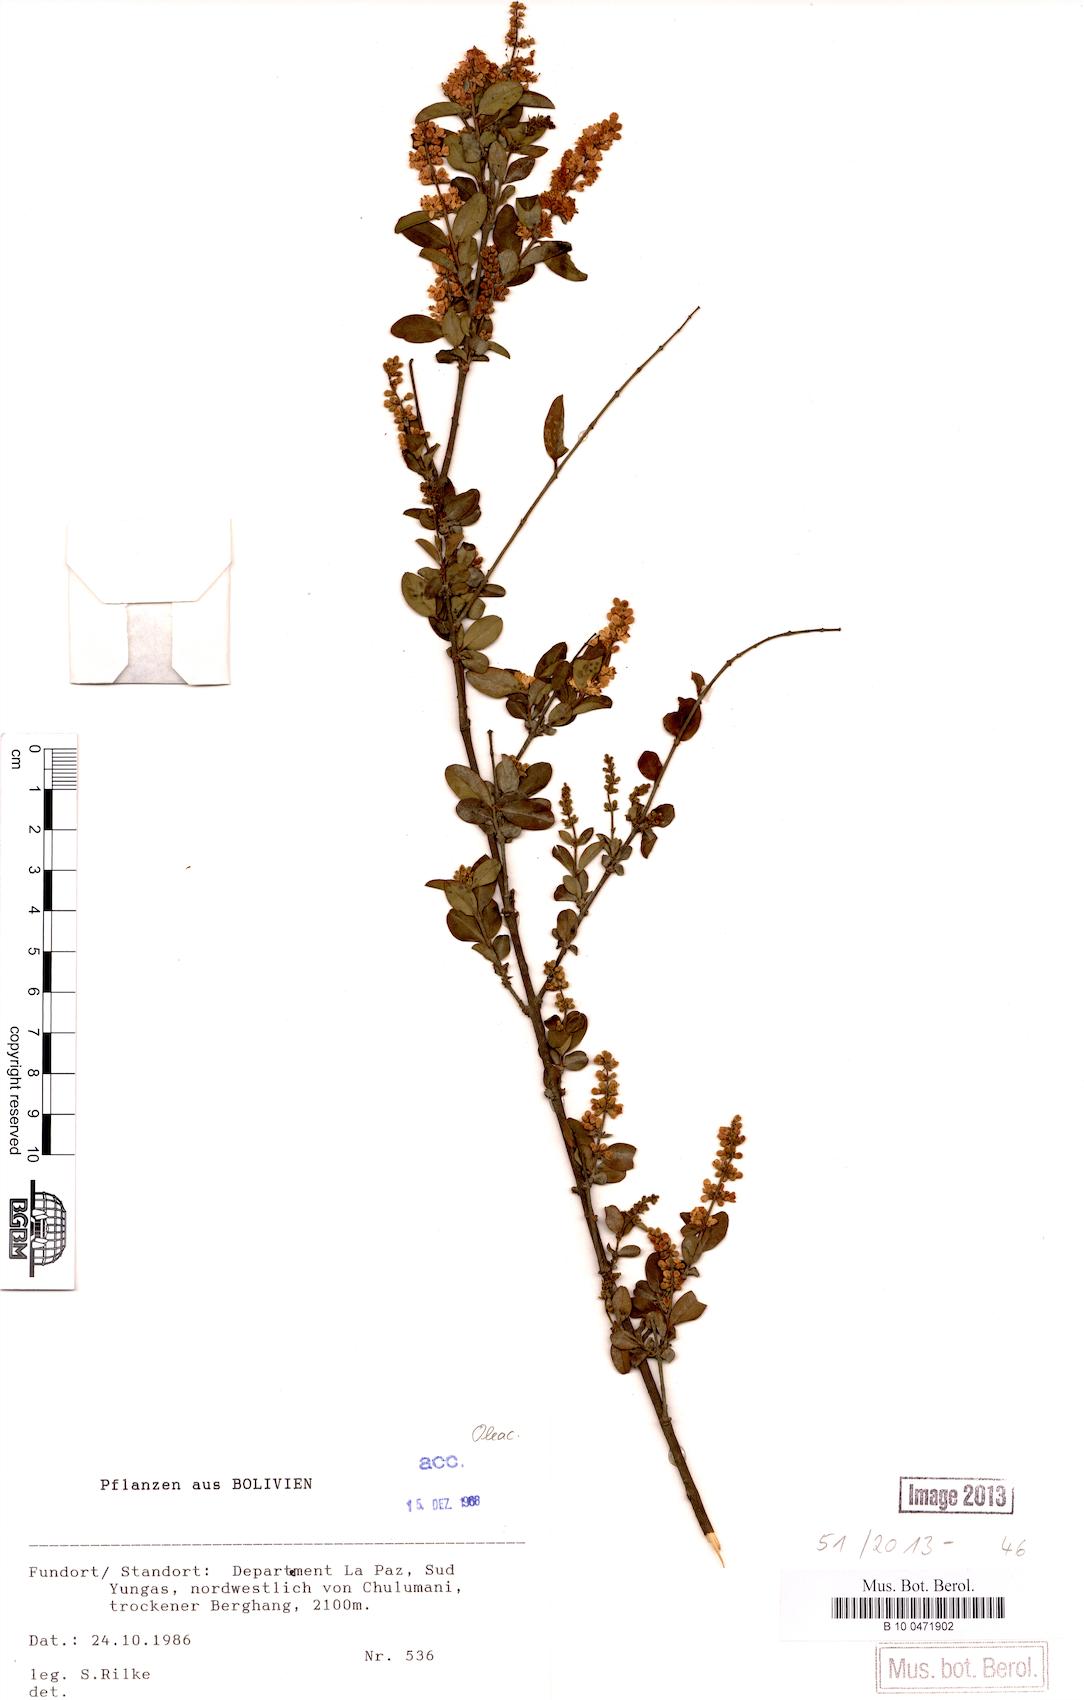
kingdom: Plantae
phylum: Tracheophyta
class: Magnoliopsida
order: Lamiales
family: Oleaceae
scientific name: Oleaceae
